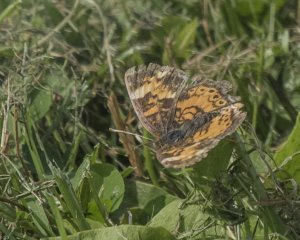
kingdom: Animalia
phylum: Arthropoda
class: Insecta
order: Lepidoptera
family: Nymphalidae
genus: Phyciodes
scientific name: Phyciodes tharos
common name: Northern Crescent
